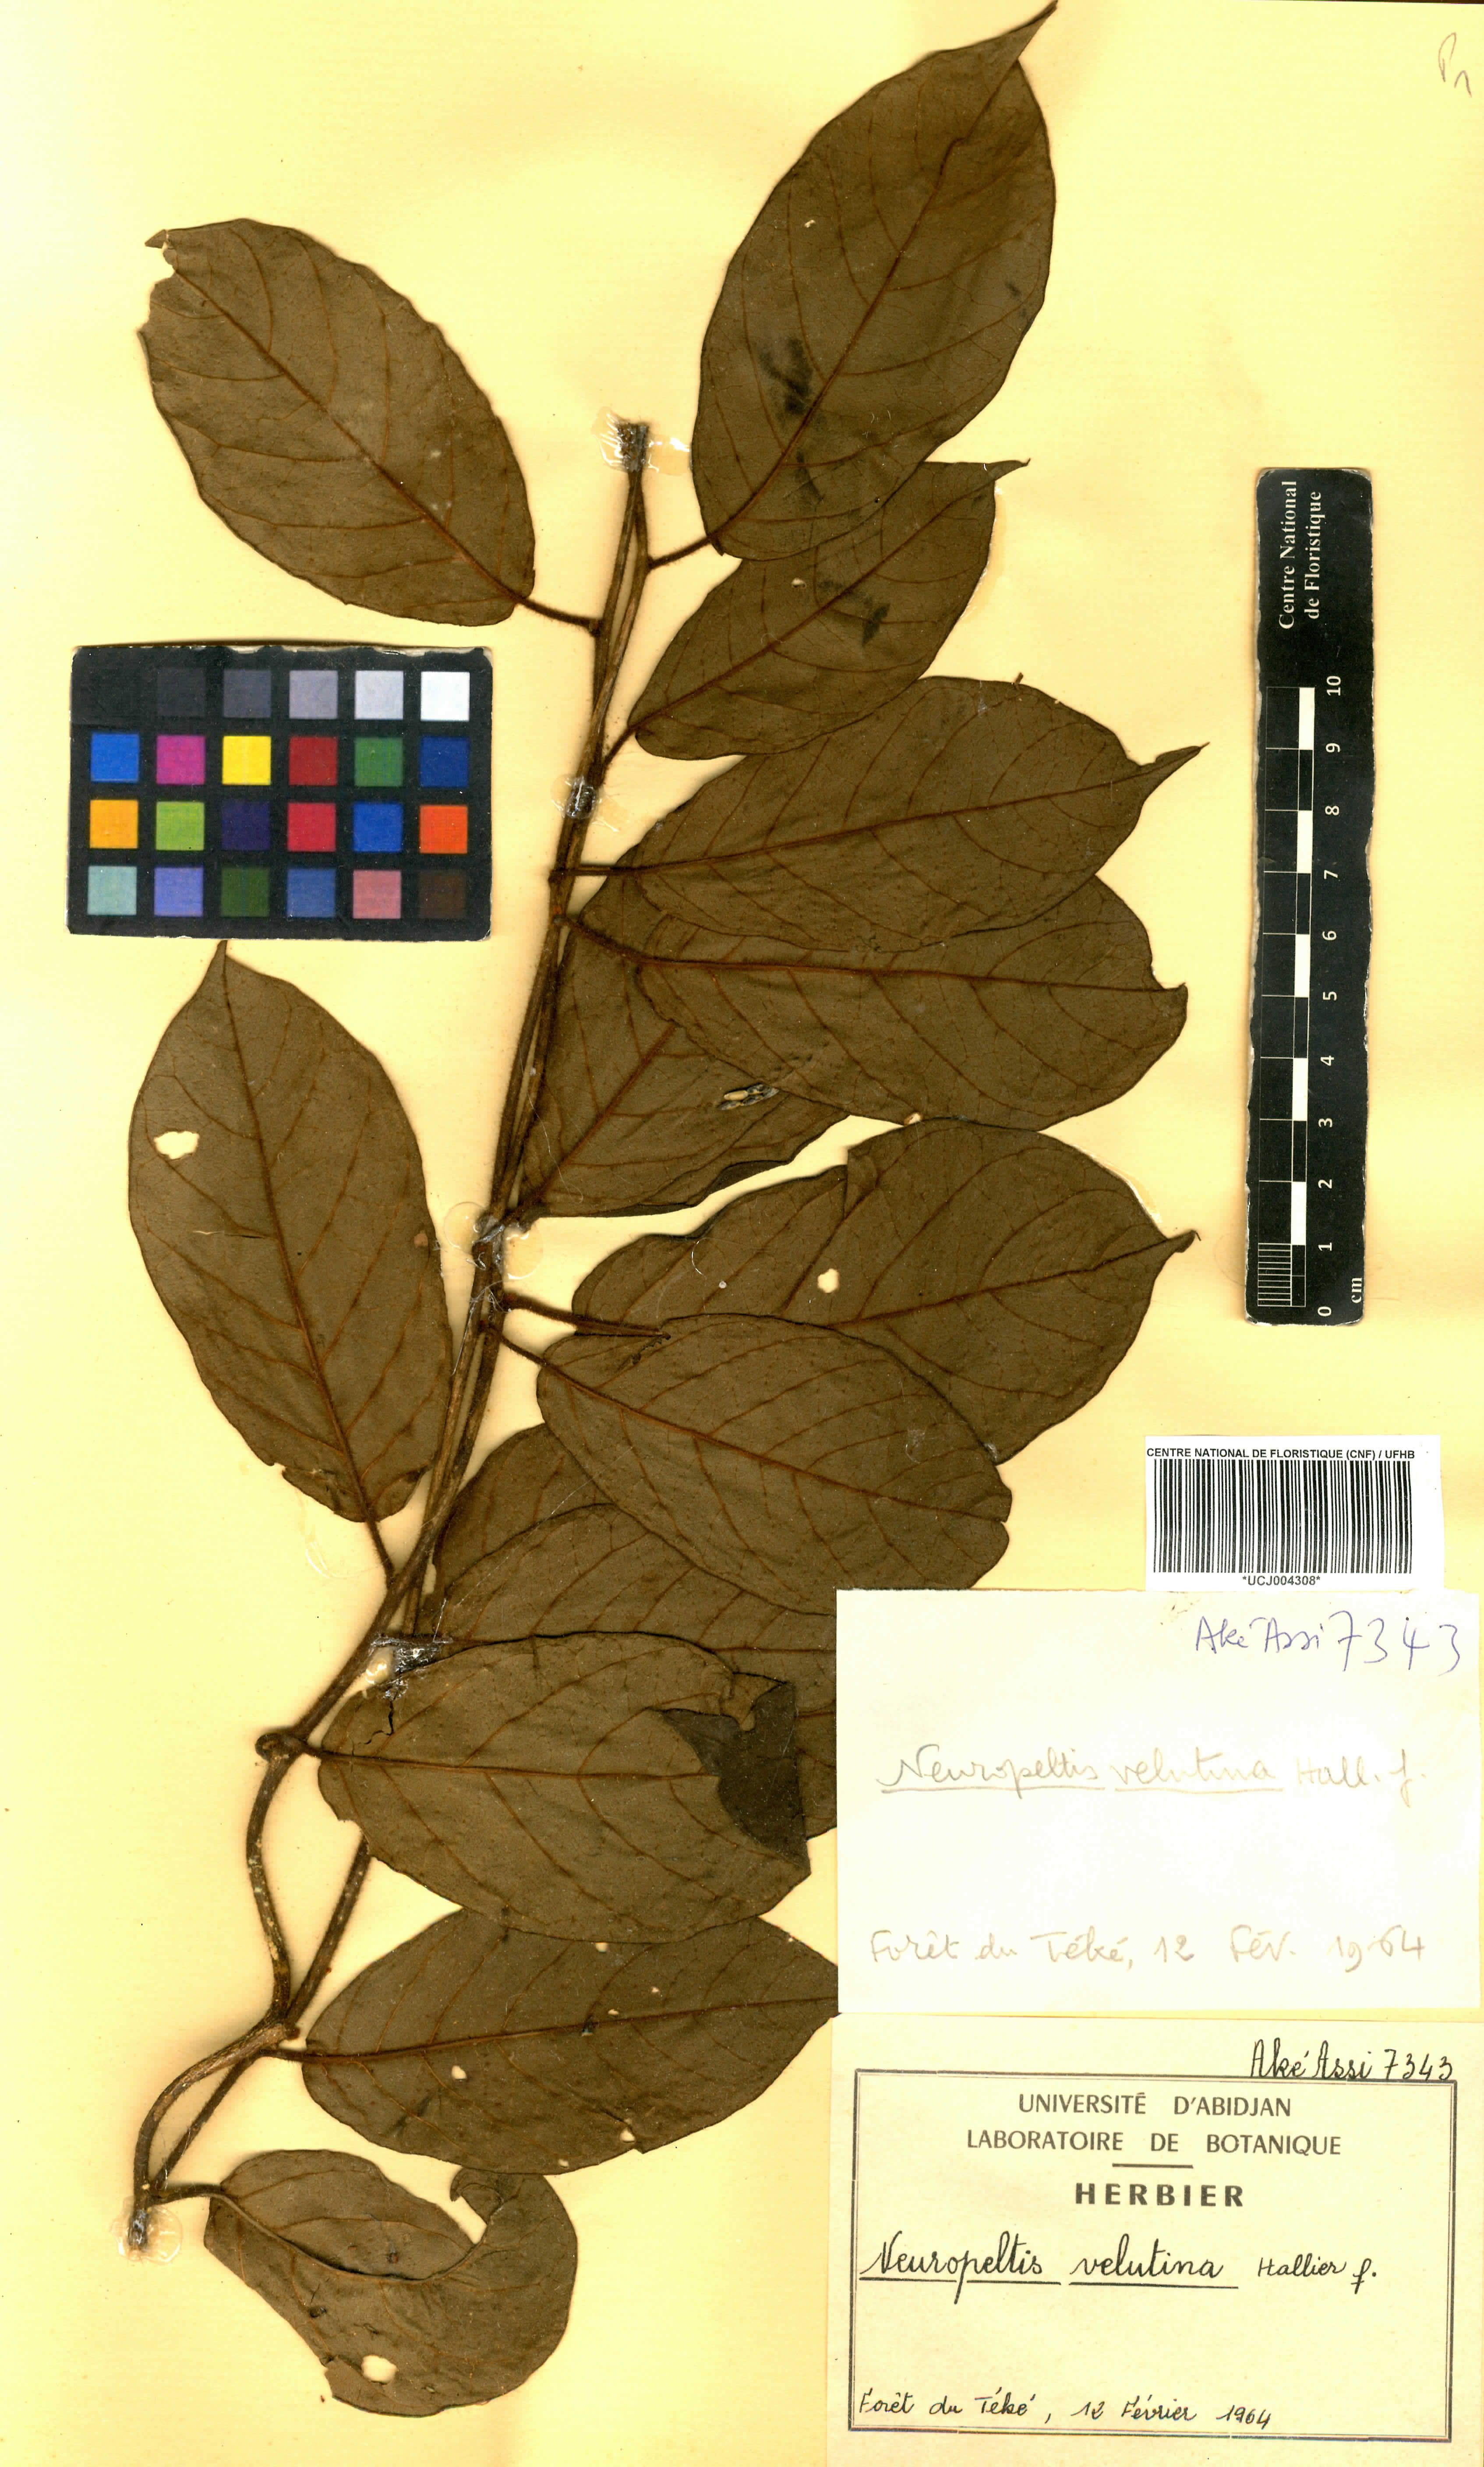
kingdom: Plantae
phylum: Tracheophyta
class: Magnoliopsida
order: Solanales
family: Convolvulaceae
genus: Neuropeltis
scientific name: Neuropeltis velutina
